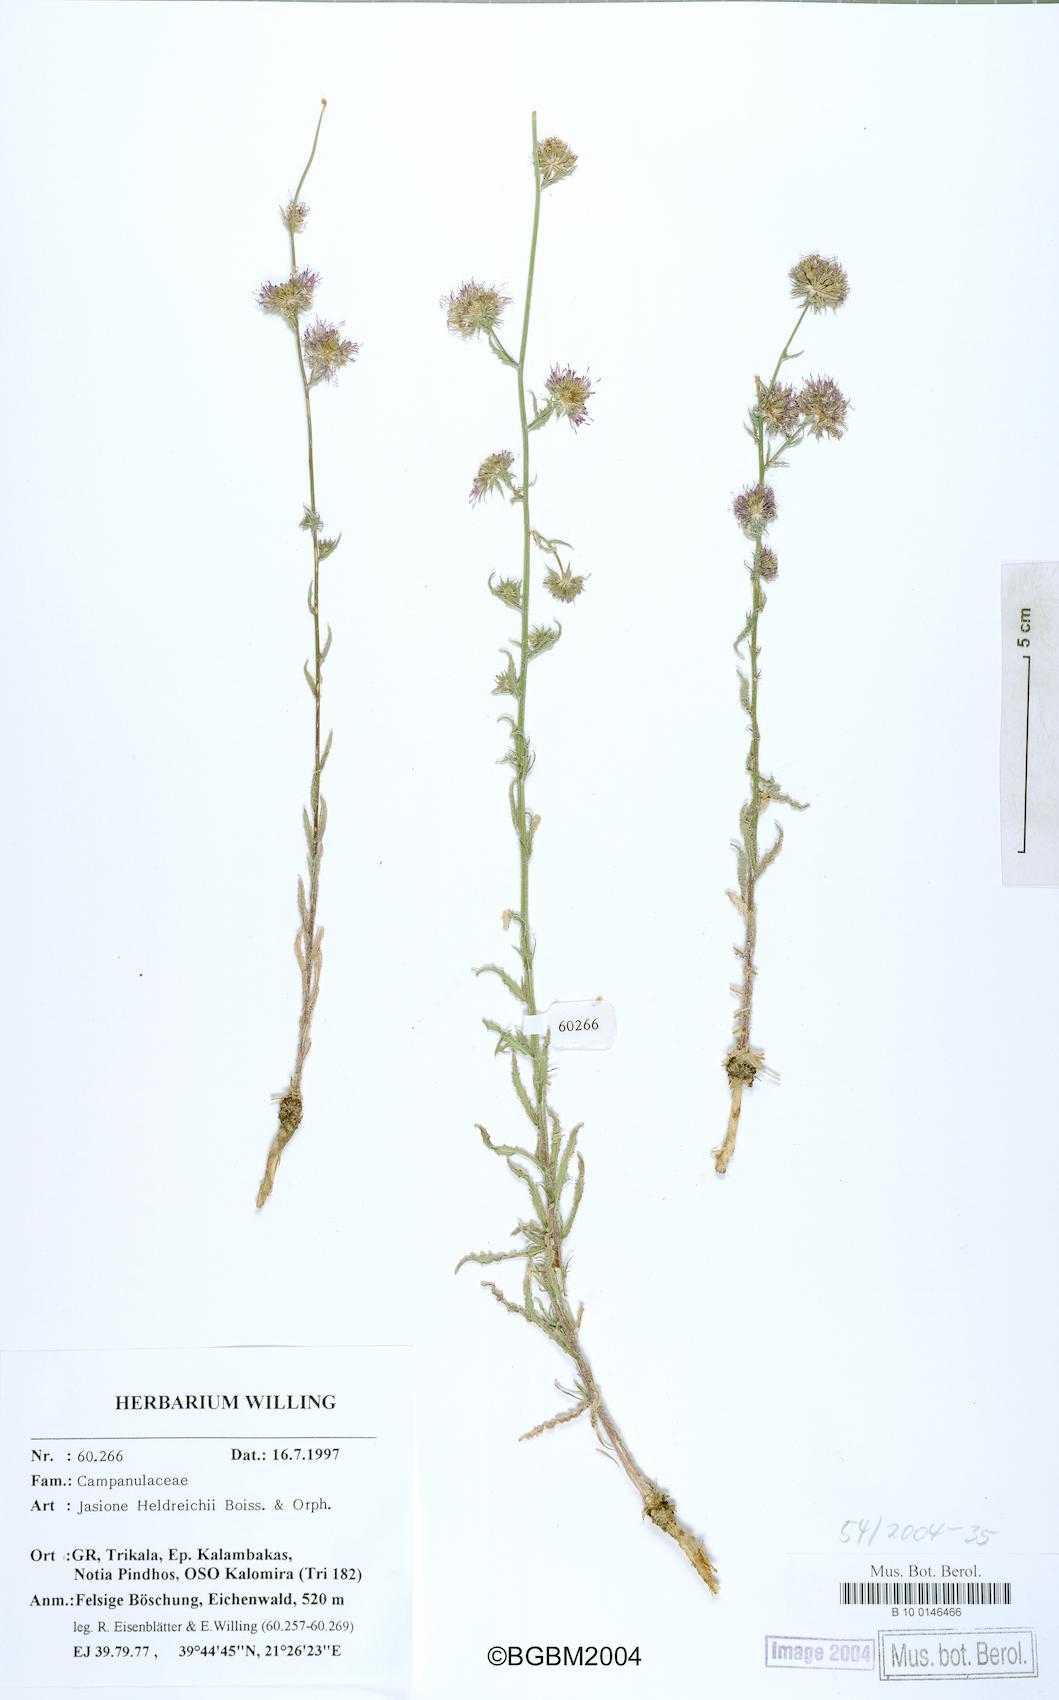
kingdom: Plantae
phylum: Tracheophyta
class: Magnoliopsida
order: Asterales
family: Campanulaceae
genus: Jasione
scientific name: Jasione heldreichii
